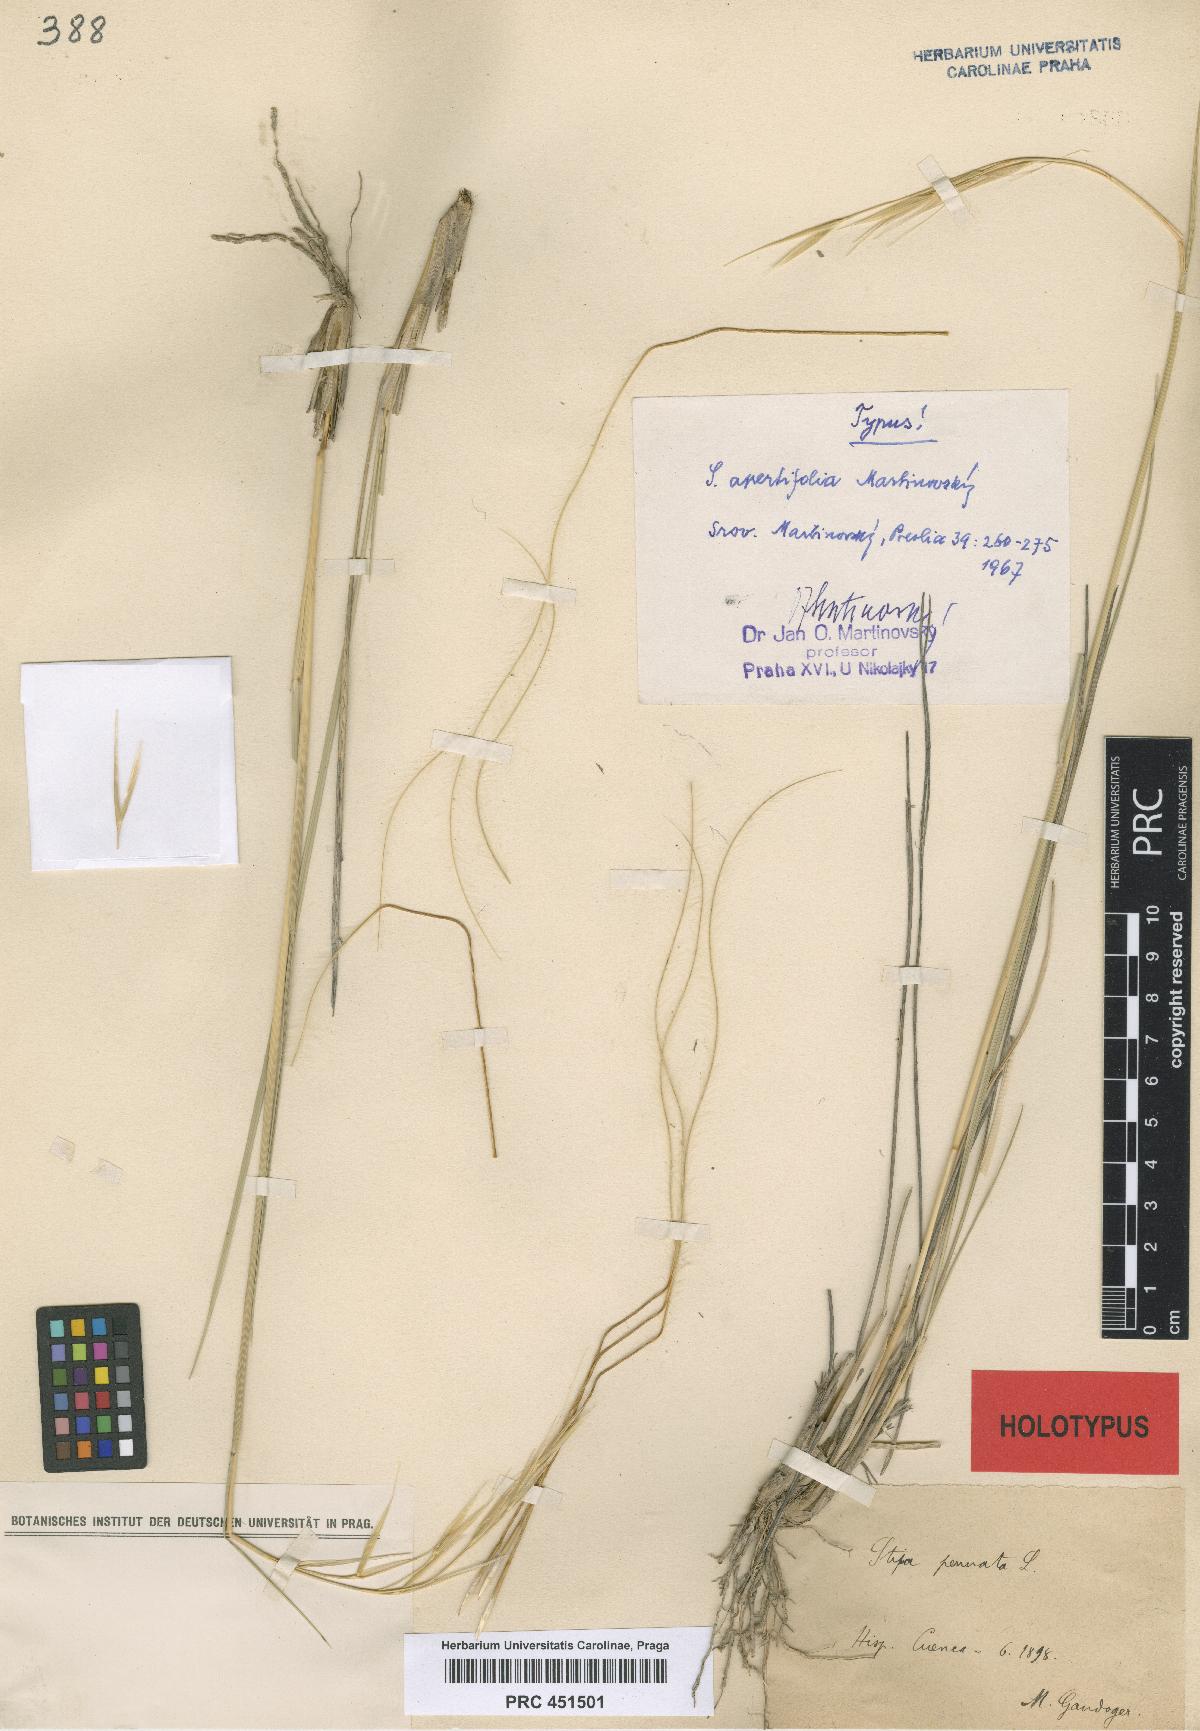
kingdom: Plantae
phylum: Tracheophyta
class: Liliopsida
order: Poales
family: Poaceae
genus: Stipa
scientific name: Stipa apertifolia
